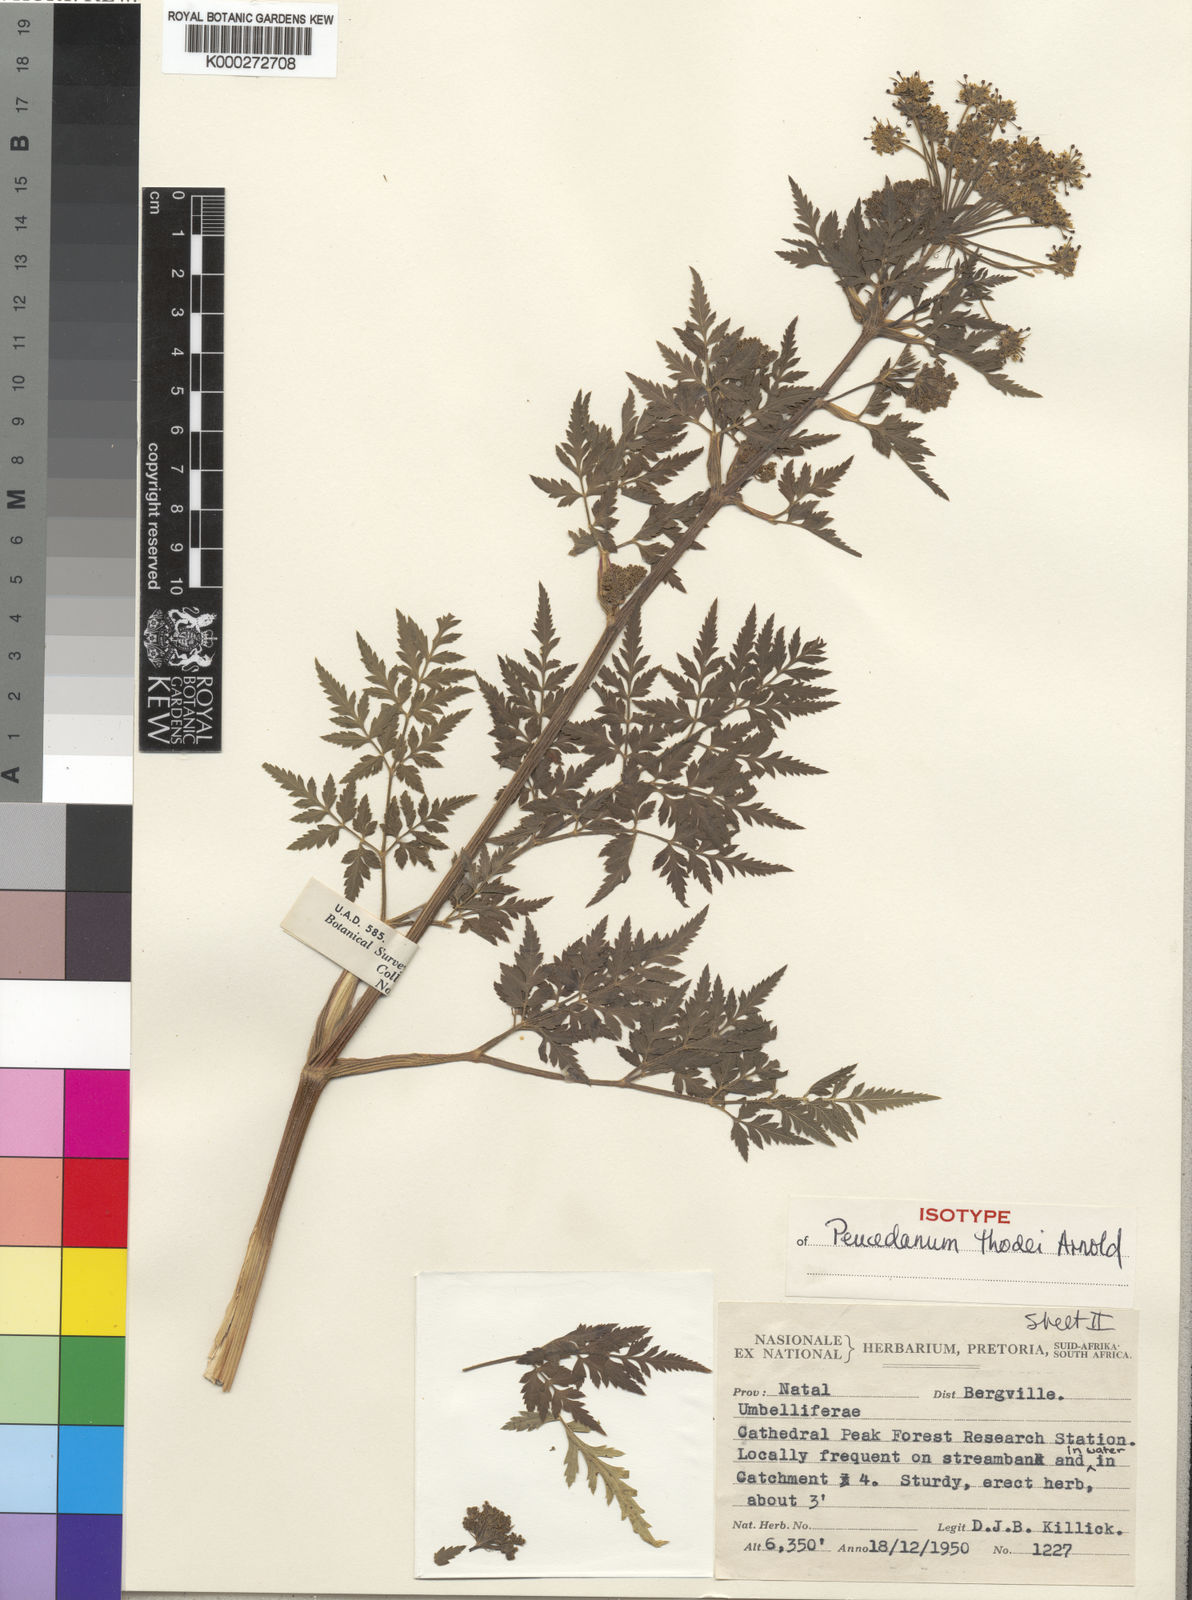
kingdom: Plantae
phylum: Tracheophyta
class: Magnoliopsida
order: Apiales
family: Apiaceae
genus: Anethum
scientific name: Anethum
